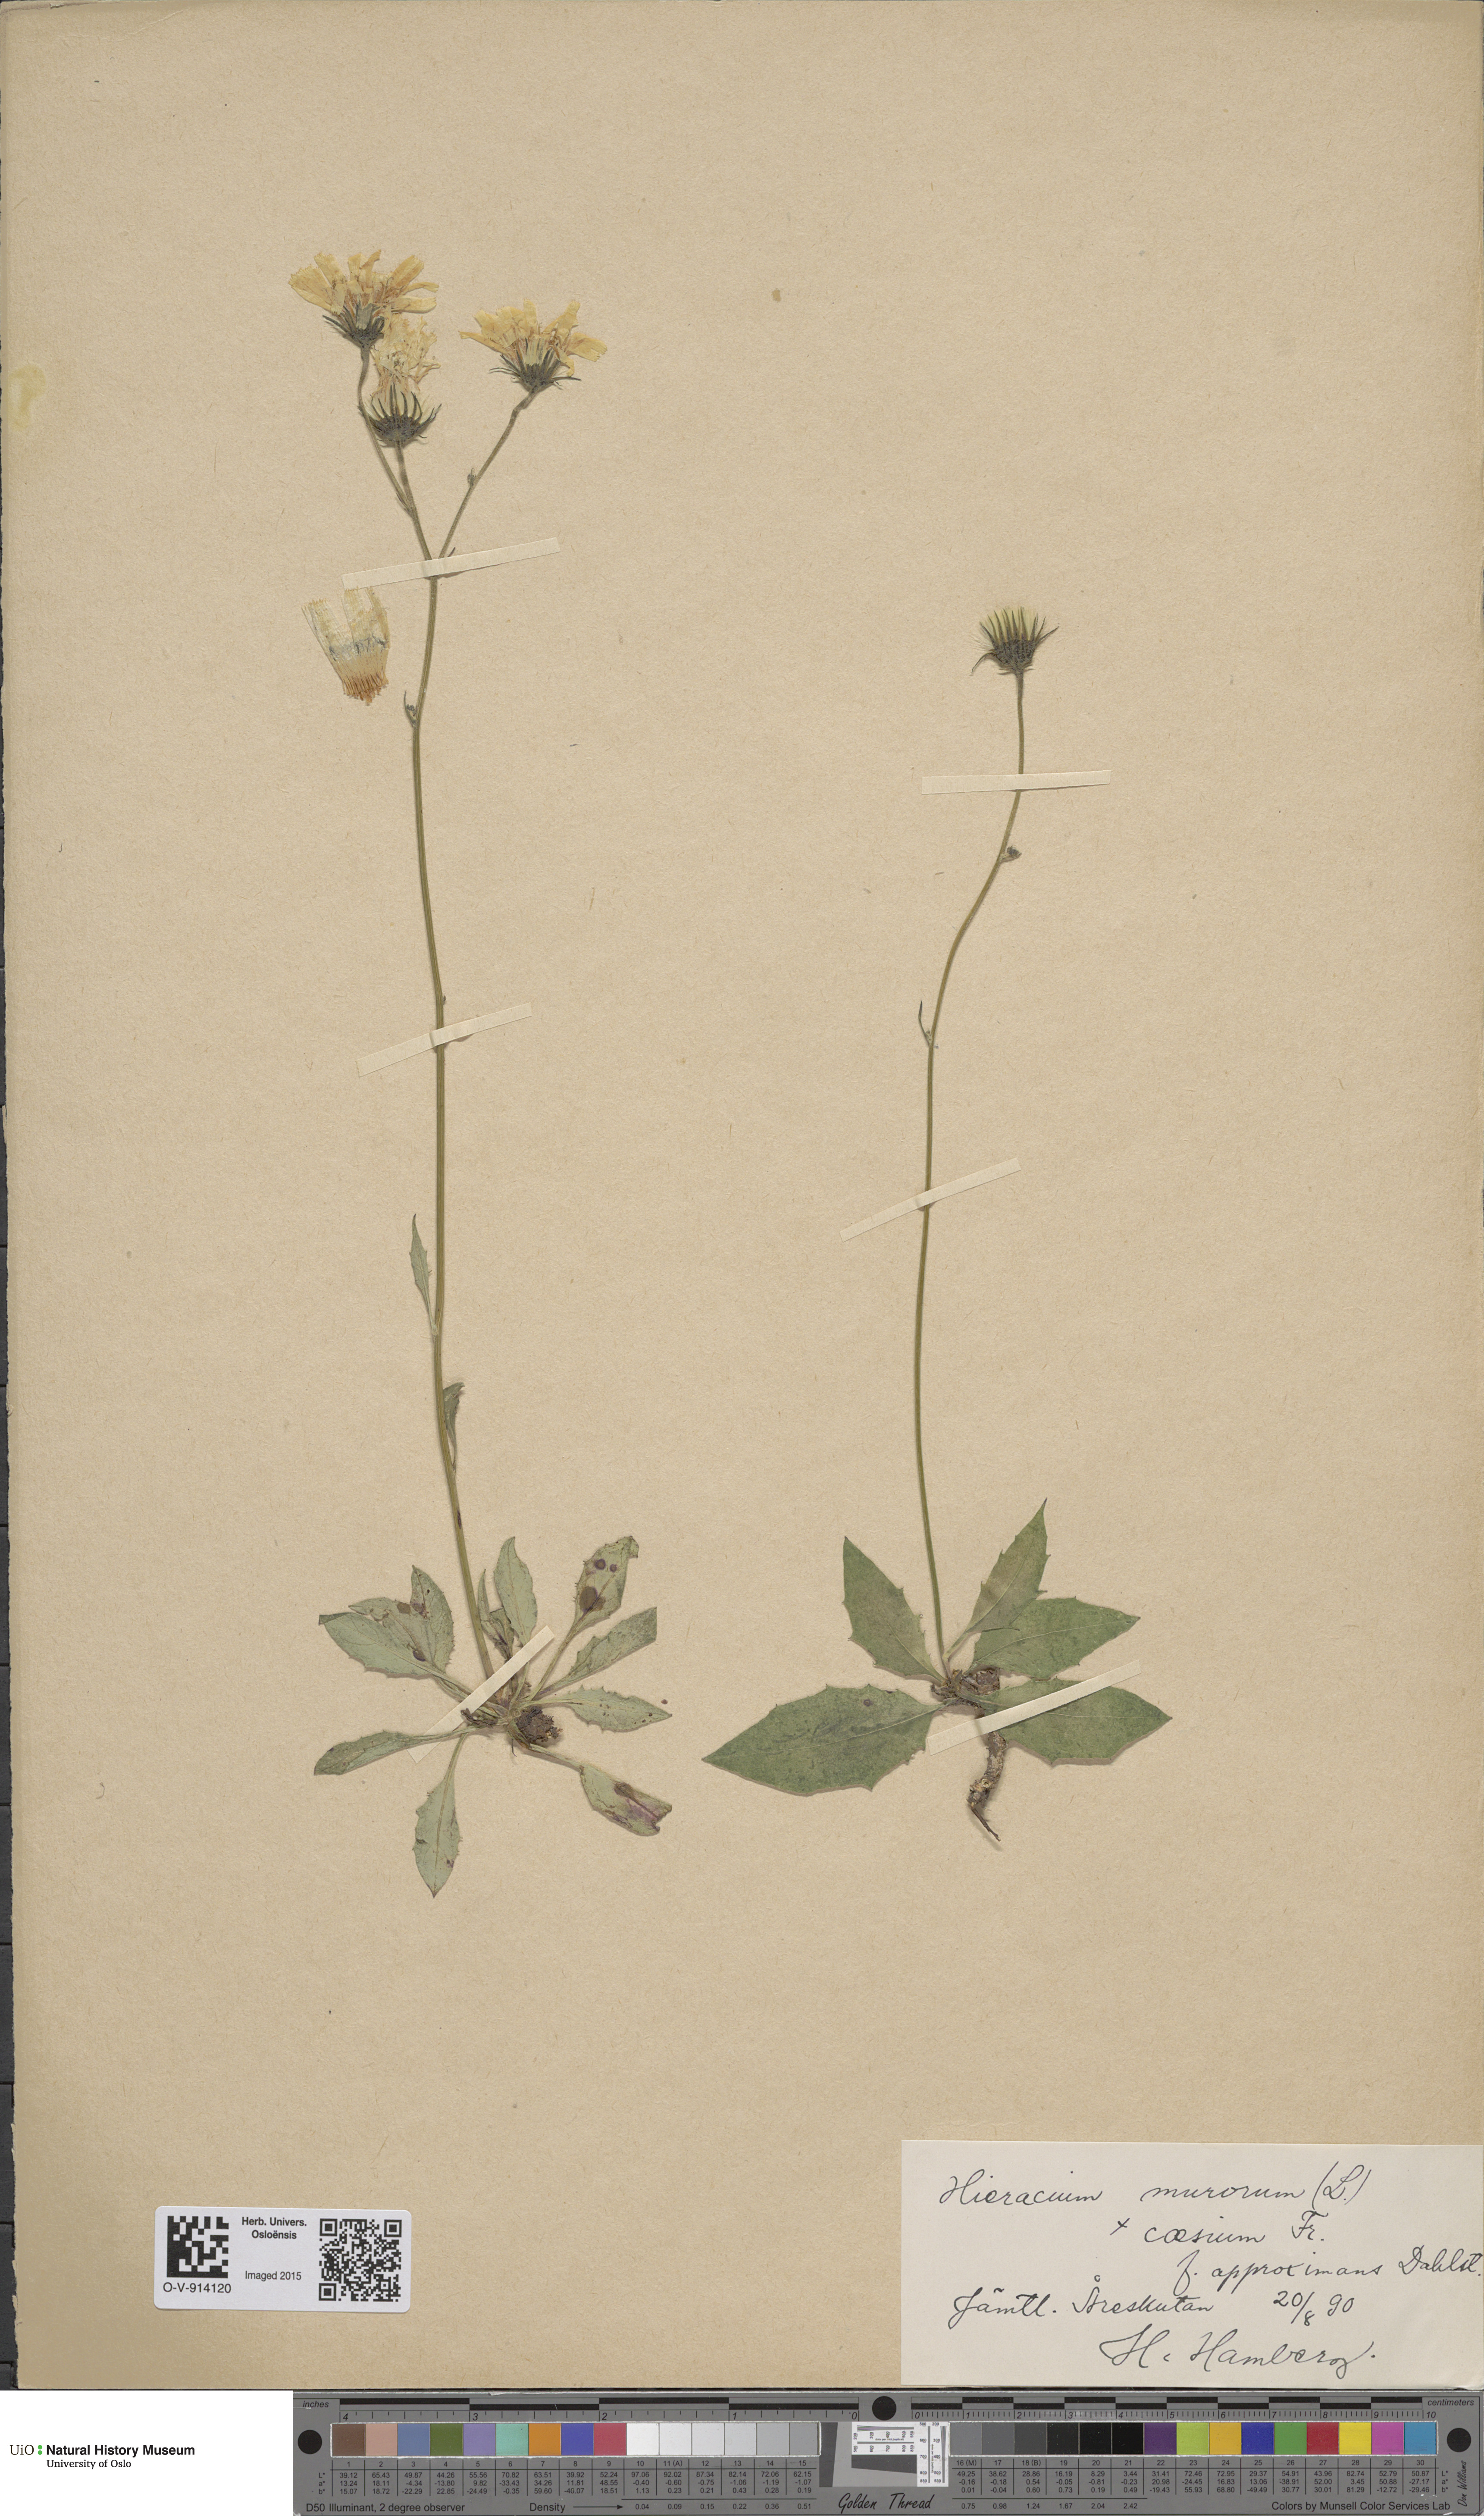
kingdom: Plantae
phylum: Tracheophyta
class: Magnoliopsida
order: Asterales
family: Asteraceae
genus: Hieracium
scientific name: Hieracium caesium
